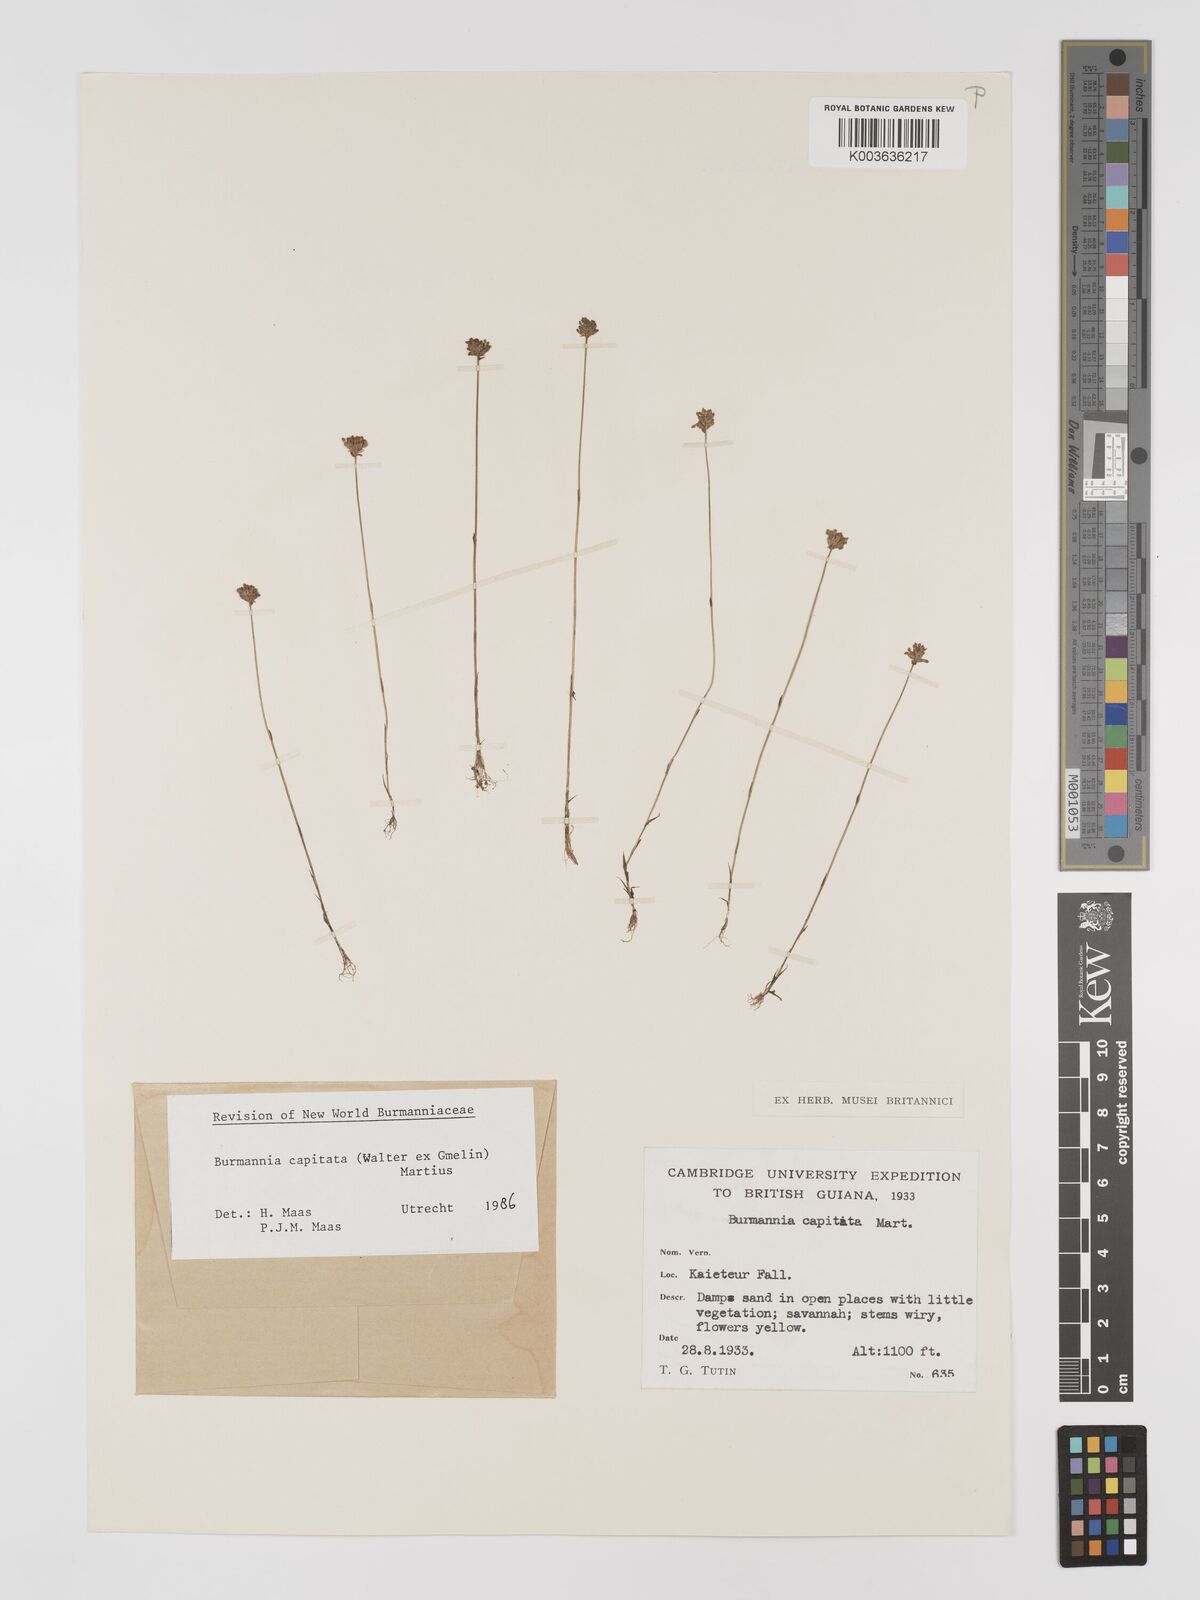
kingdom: Plantae
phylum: Tracheophyta
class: Liliopsida
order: Dioscoreales
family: Burmanniaceae
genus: Burmannia
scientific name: Burmannia capitata
